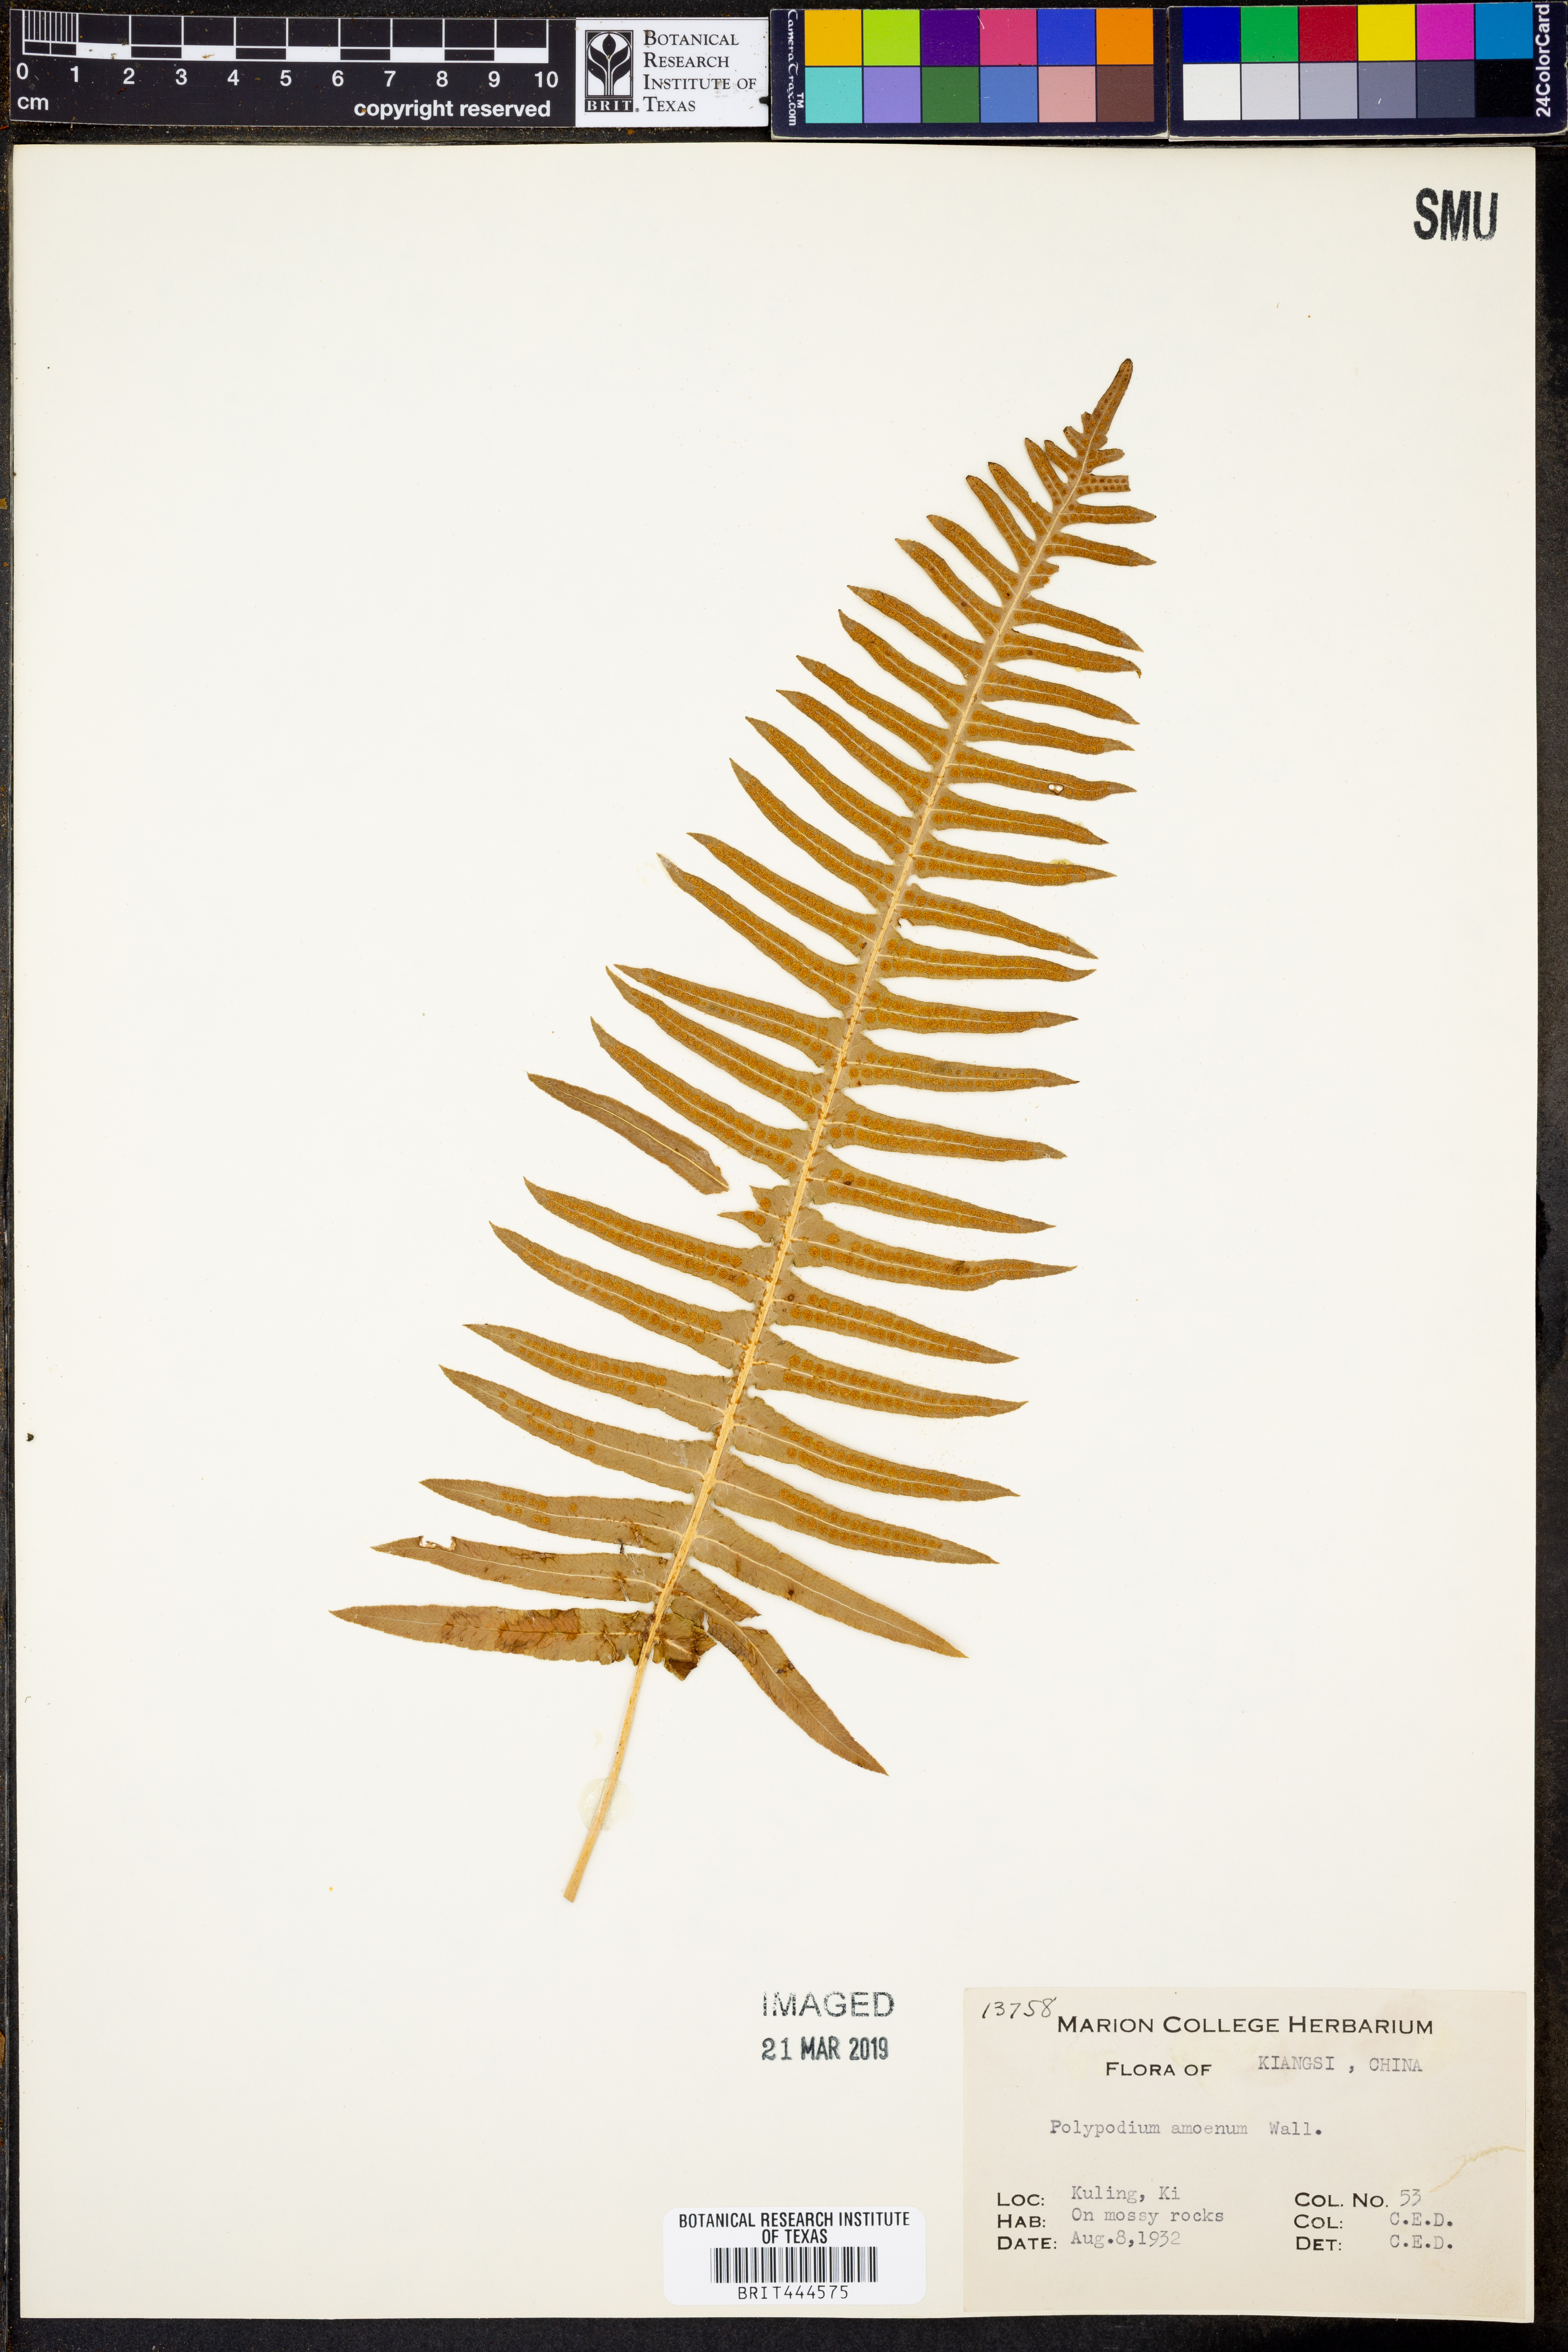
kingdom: Plantae
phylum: Tracheophyta
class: Polypodiopsida
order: Polypodiales
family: Polypodiaceae
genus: Goniophlebium
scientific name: Goniophlebium amoenum
